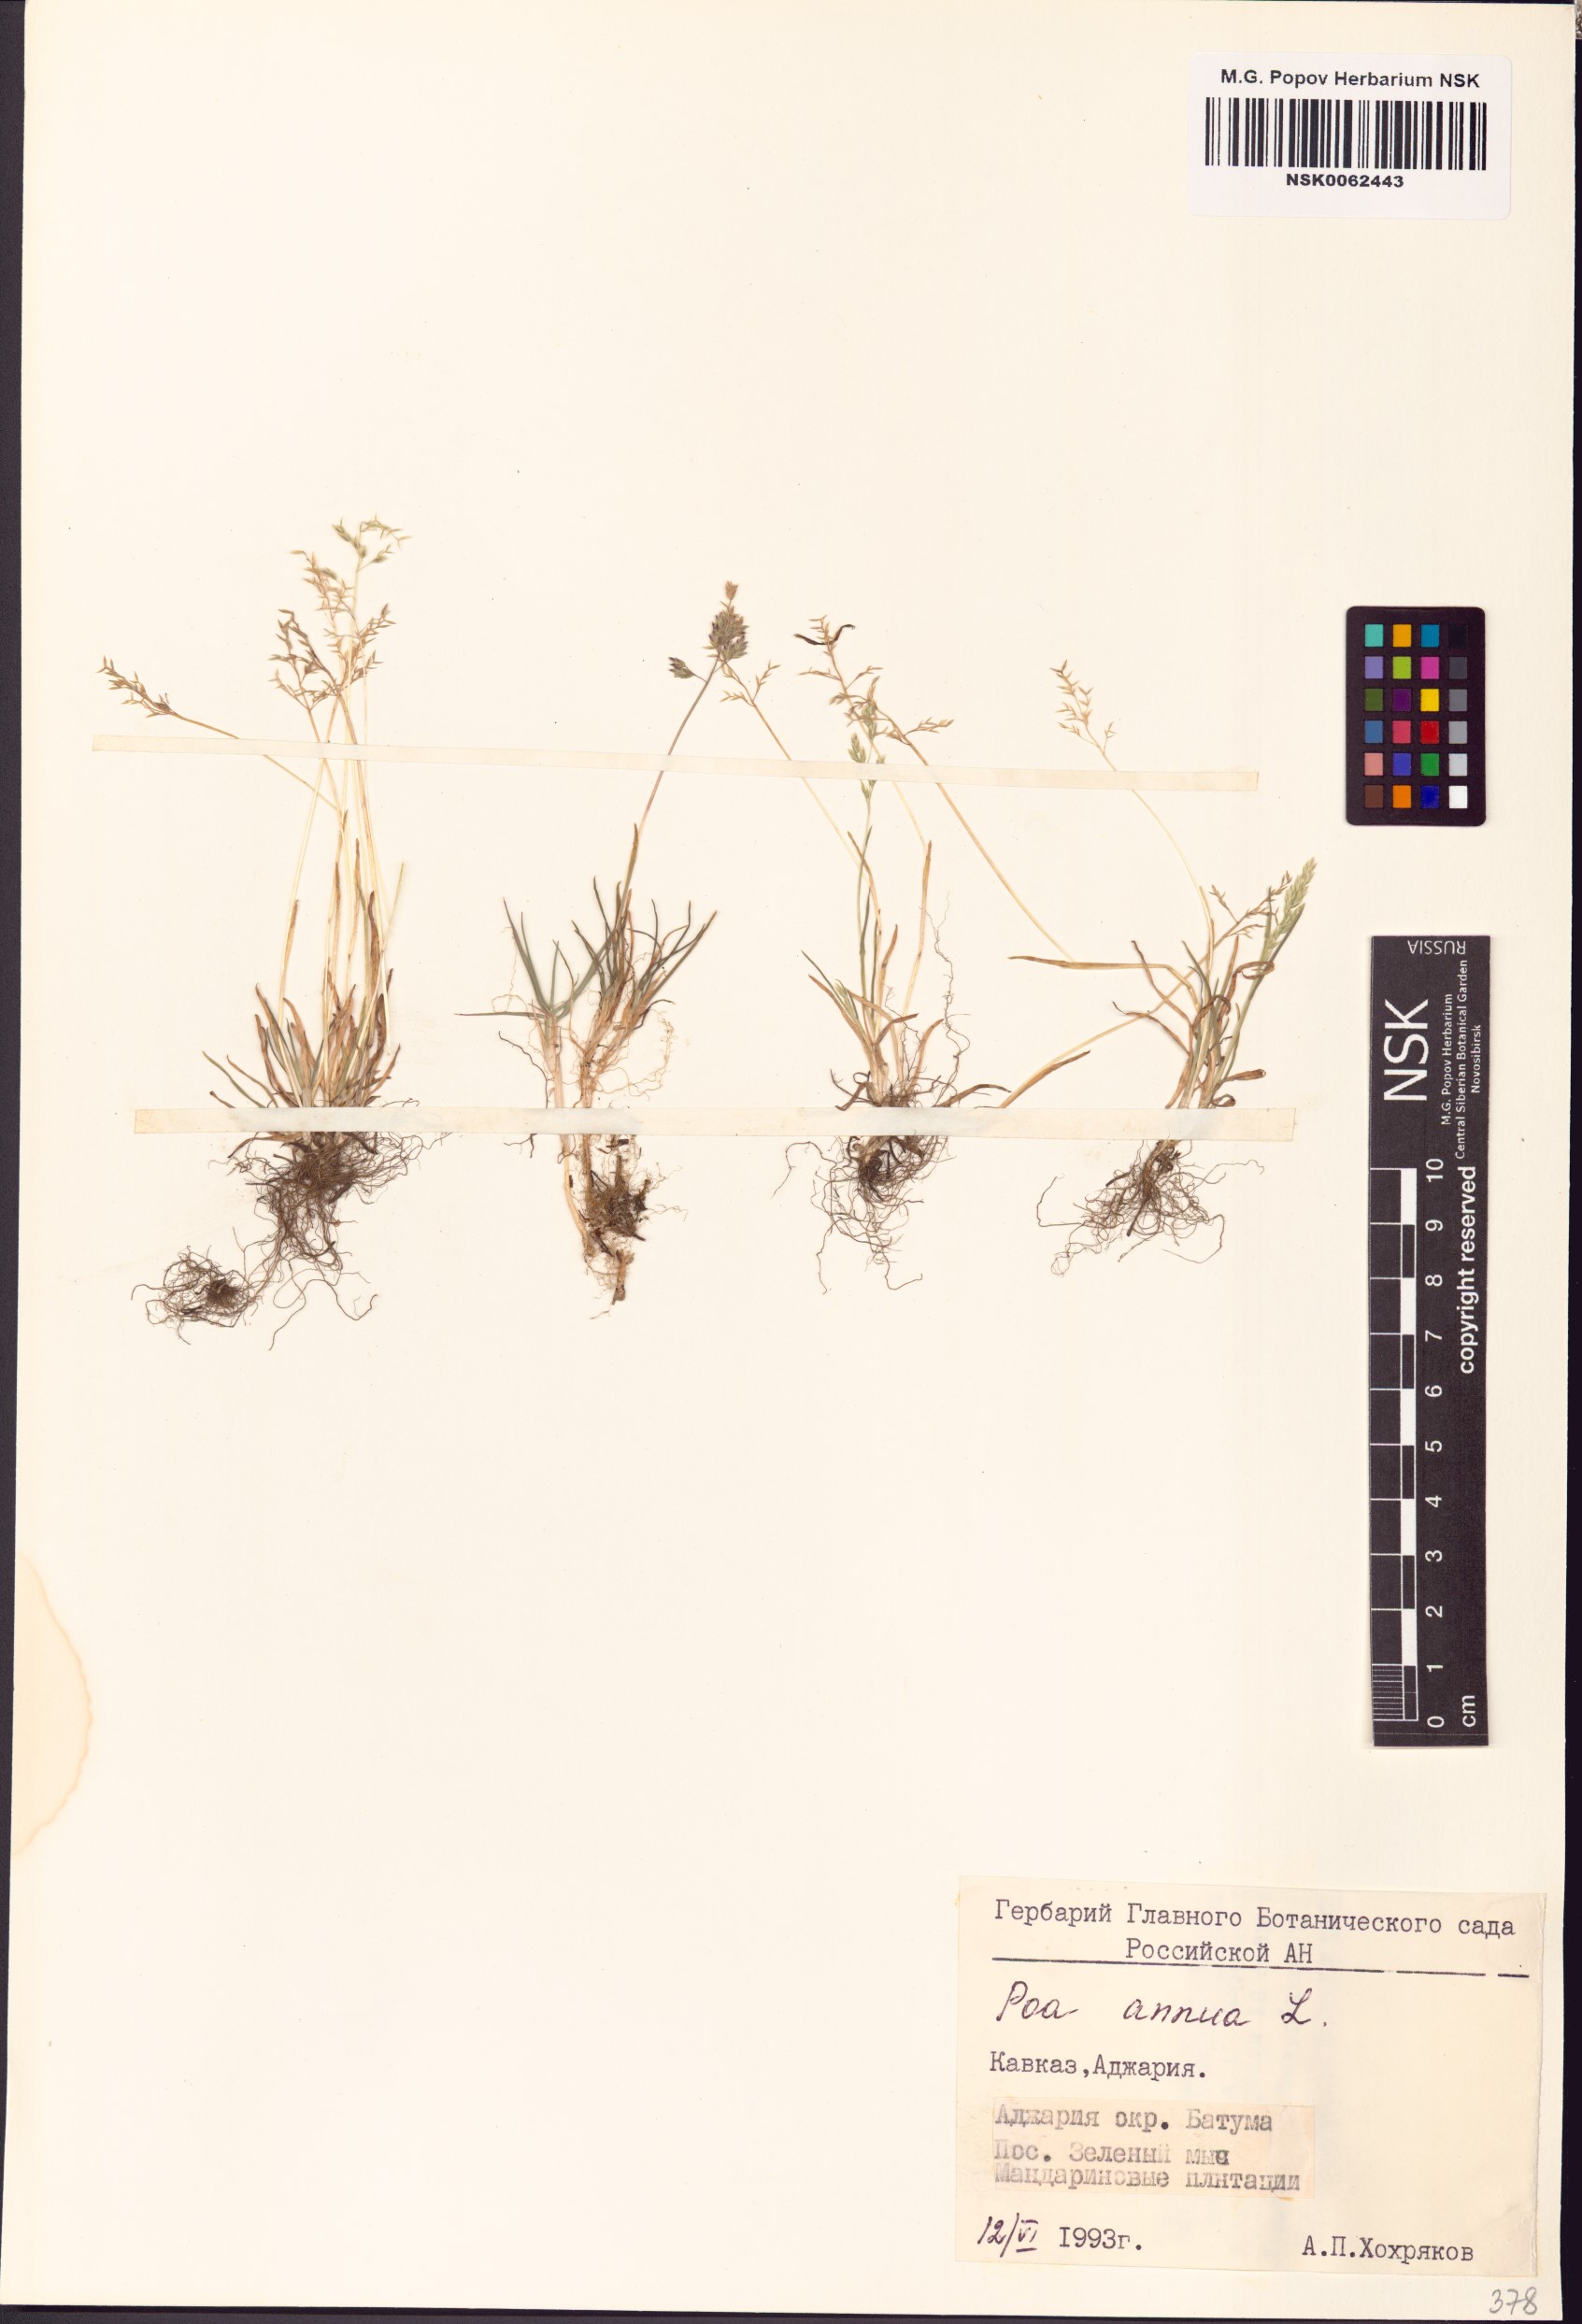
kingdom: Plantae
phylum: Tracheophyta
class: Liliopsida
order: Poales
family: Poaceae
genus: Poa
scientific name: Poa annua
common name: Annual bluegrass
